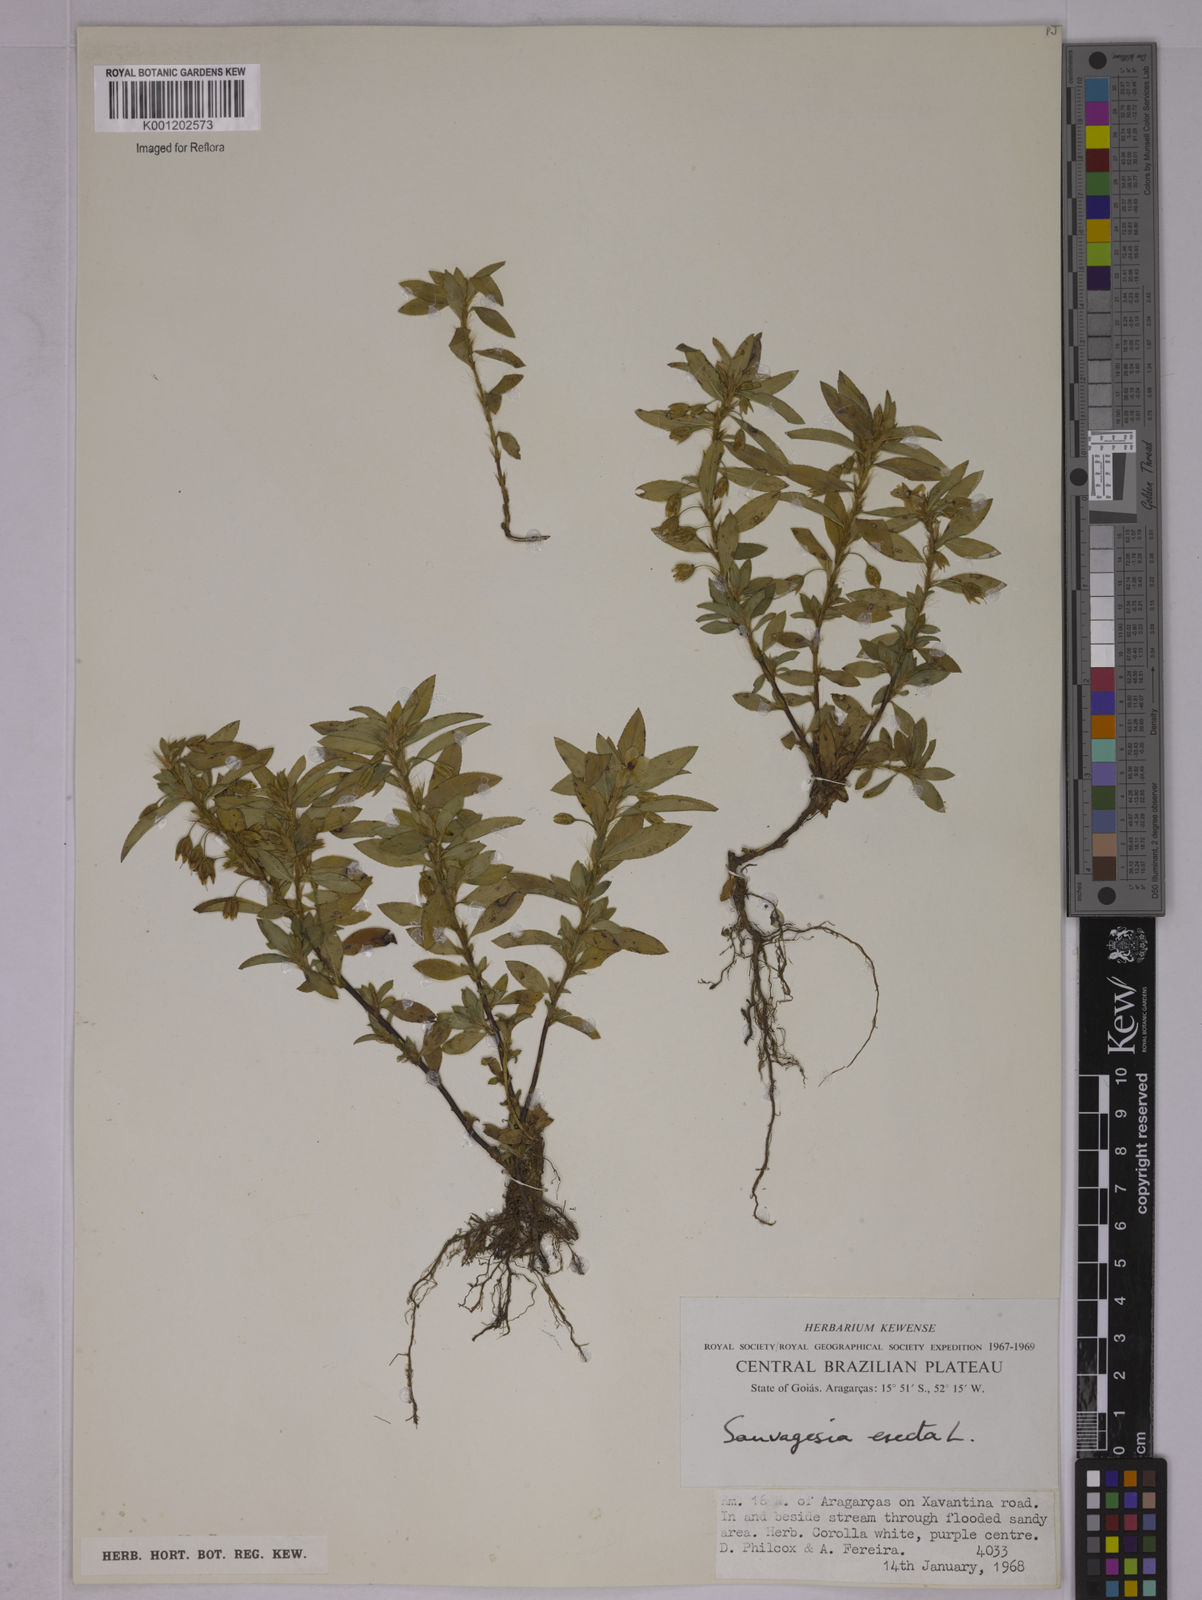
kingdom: Plantae
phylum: Tracheophyta
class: Magnoliopsida
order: Malpighiales
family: Ochnaceae
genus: Sauvagesia
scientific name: Sauvagesia erecta
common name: Creole tea
